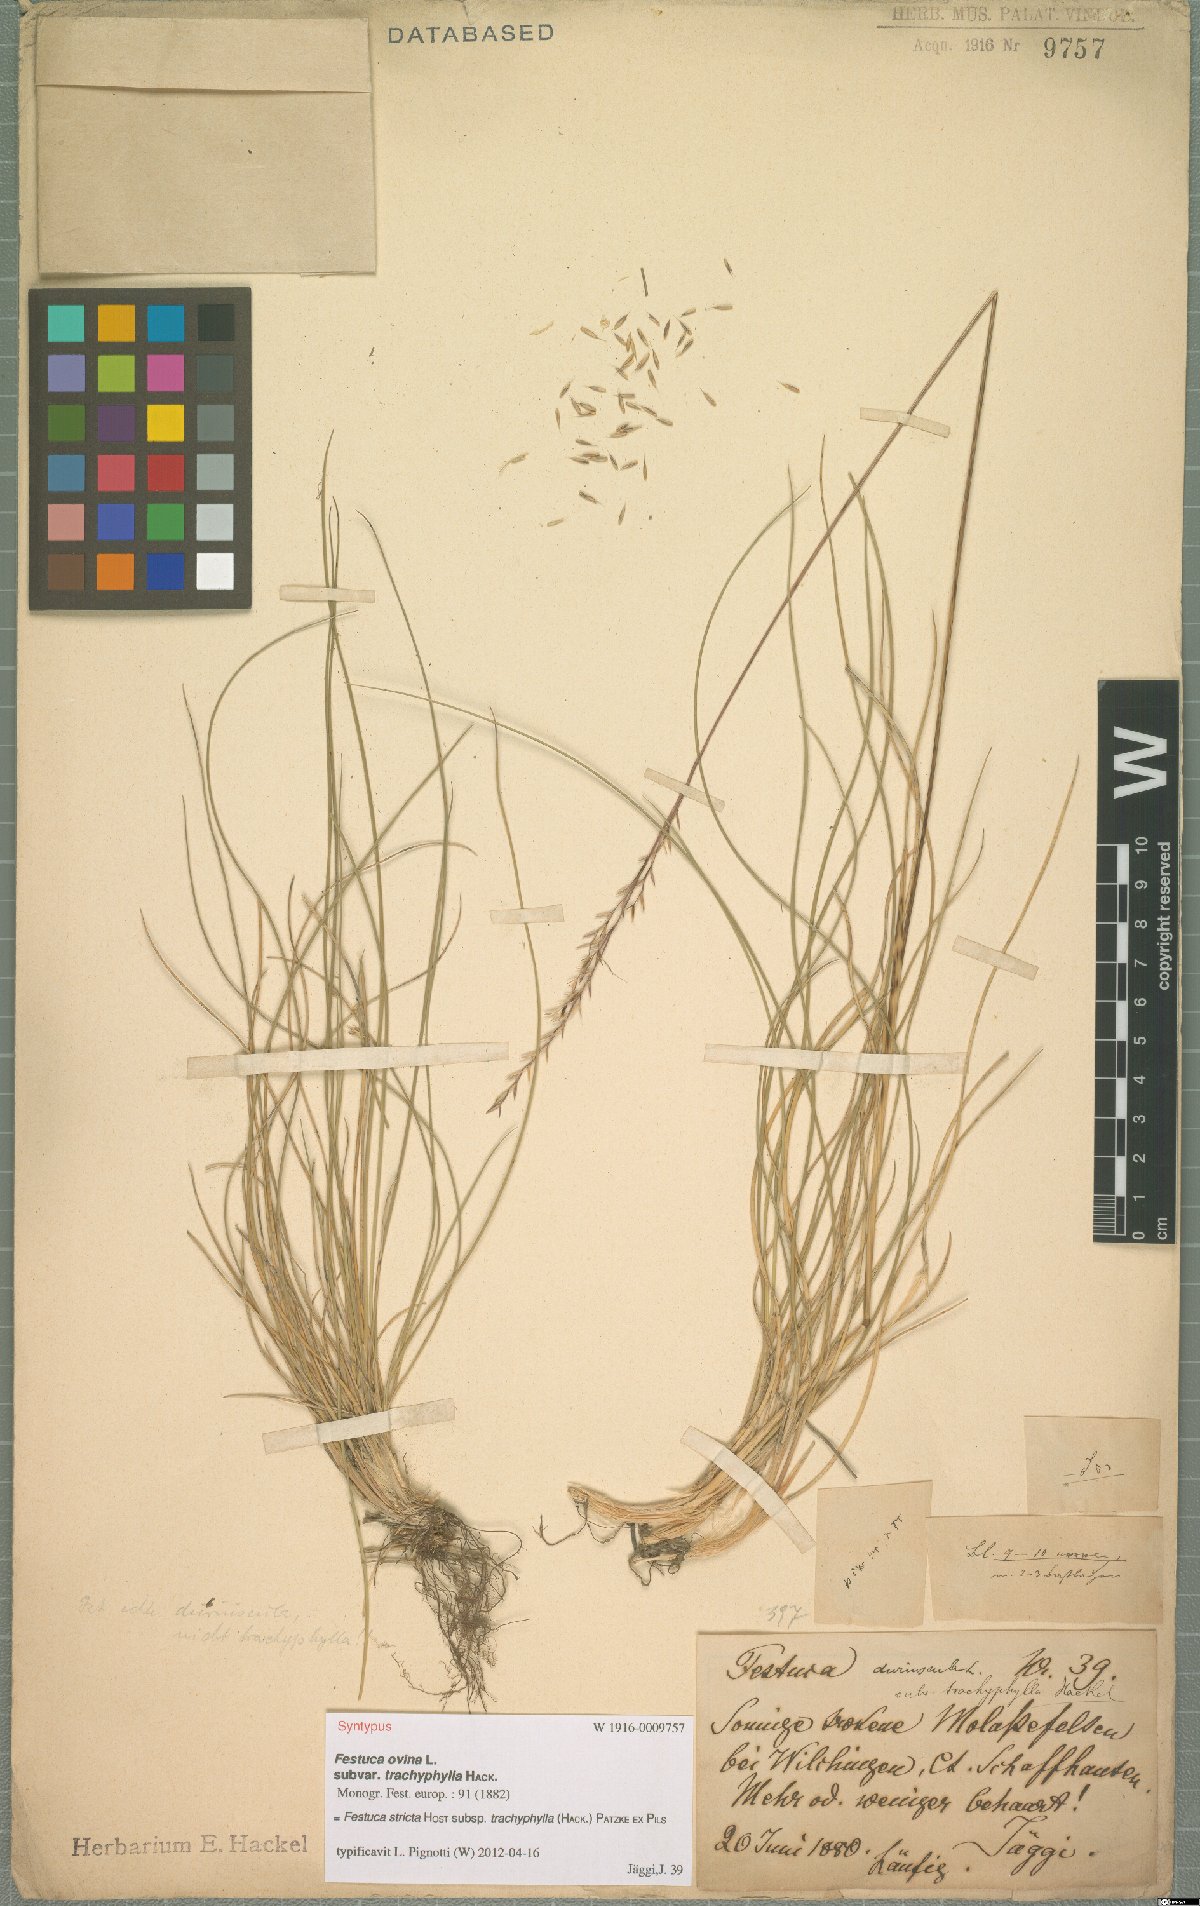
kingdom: Plantae
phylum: Tracheophyta
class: Liliopsida
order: Poales
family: Poaceae
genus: Festuca
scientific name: Festuca trachyphylla
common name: Hard fescue
